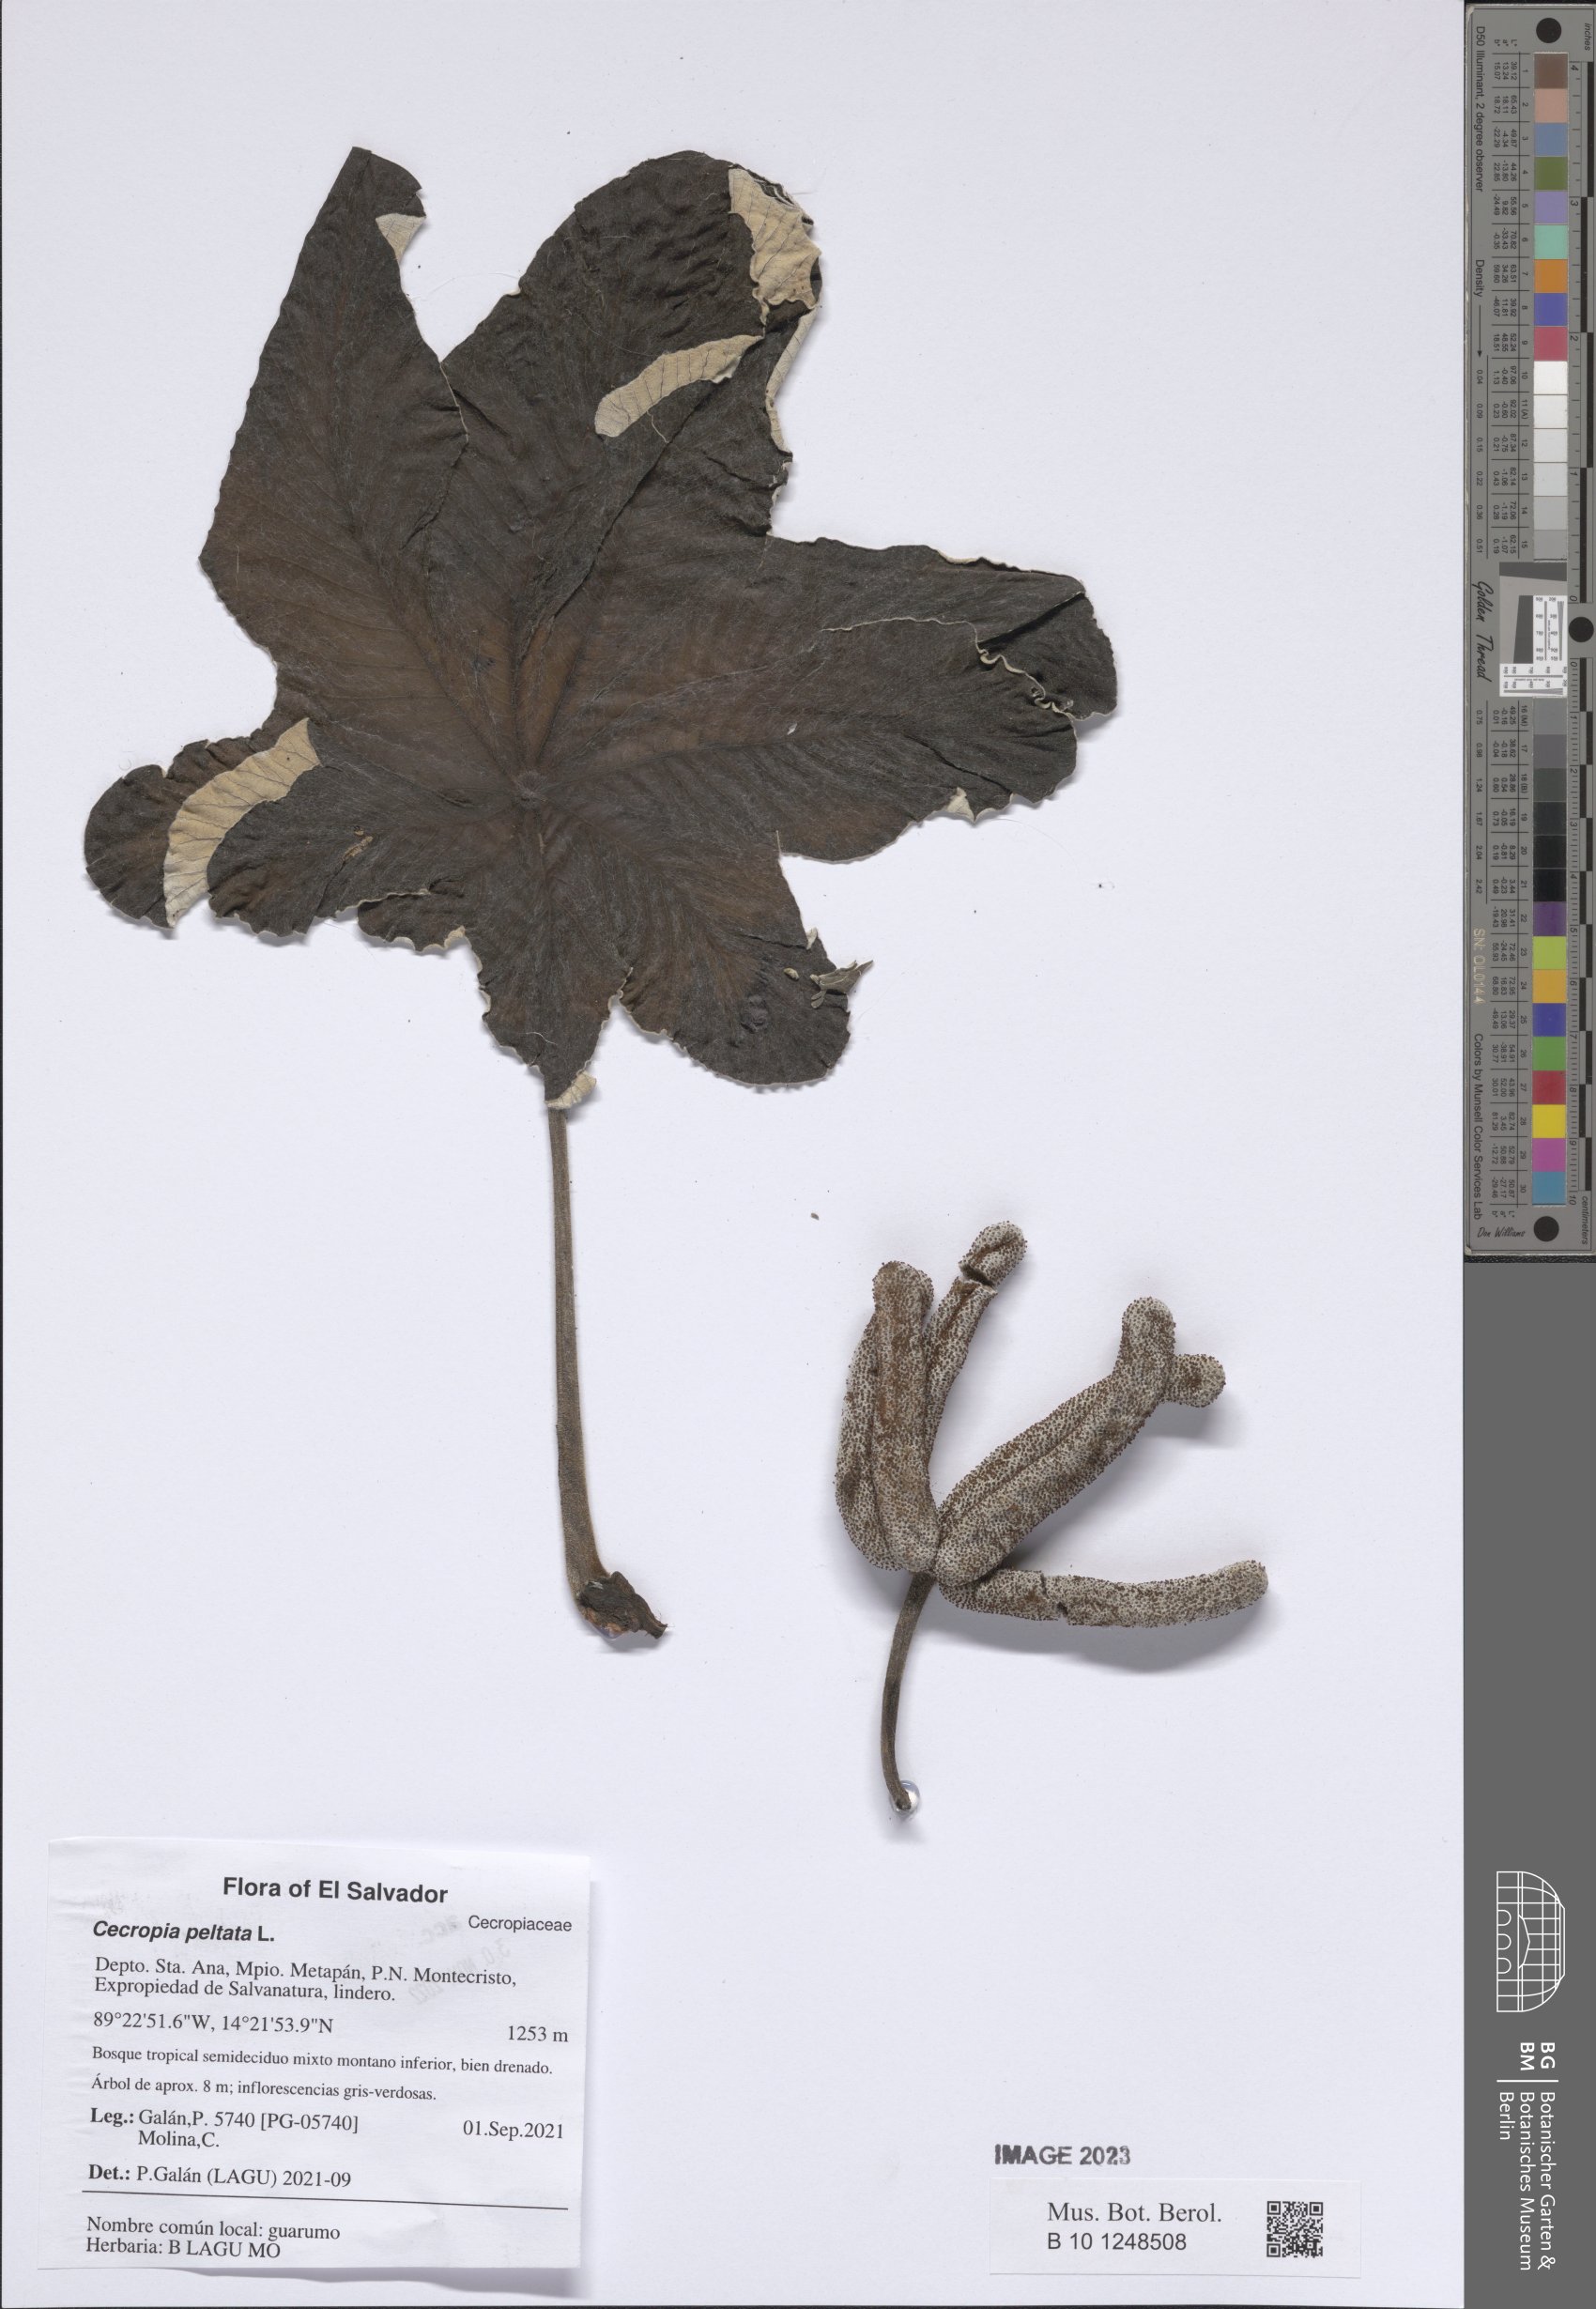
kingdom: Plantae
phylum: Tracheophyta
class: Magnoliopsida
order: Rosales
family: Urticaceae
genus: Cecropia
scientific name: Cecropia peltata
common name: Trumpet-tree
